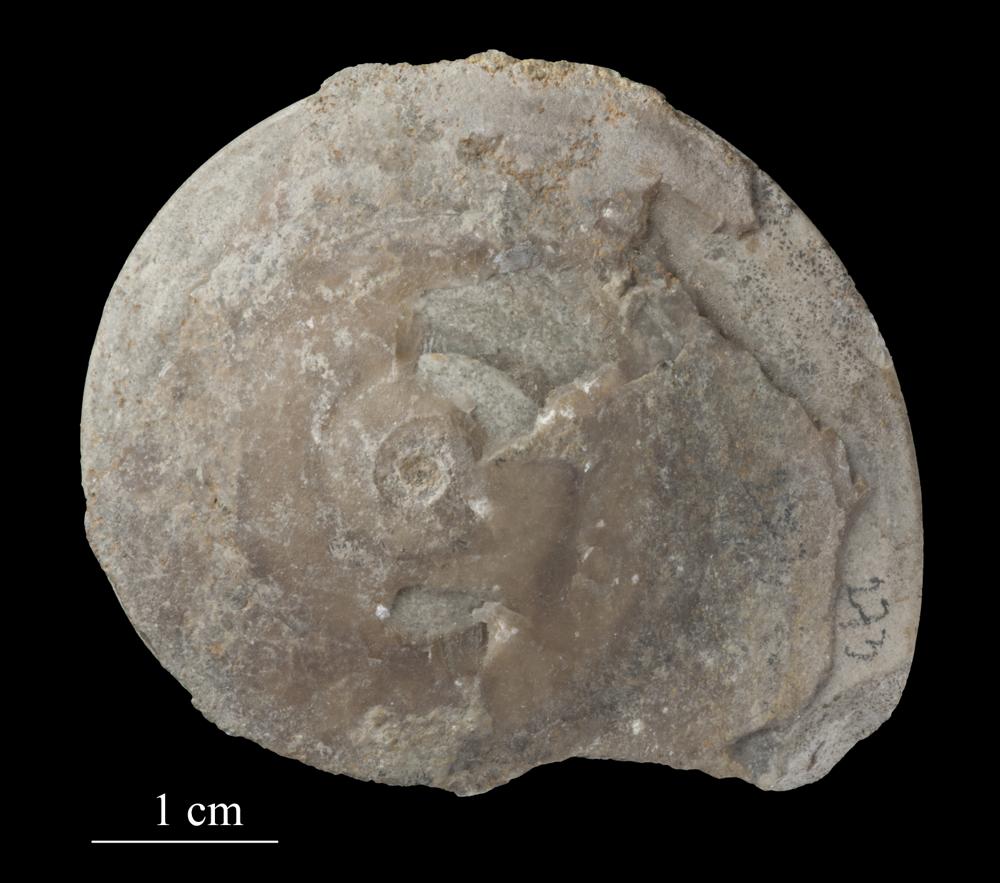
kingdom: Animalia
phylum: Mollusca
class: Gastropoda
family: Lesueurillidae
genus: Pararaphistoma
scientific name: Pararaphistoma Helicites qualteriata
